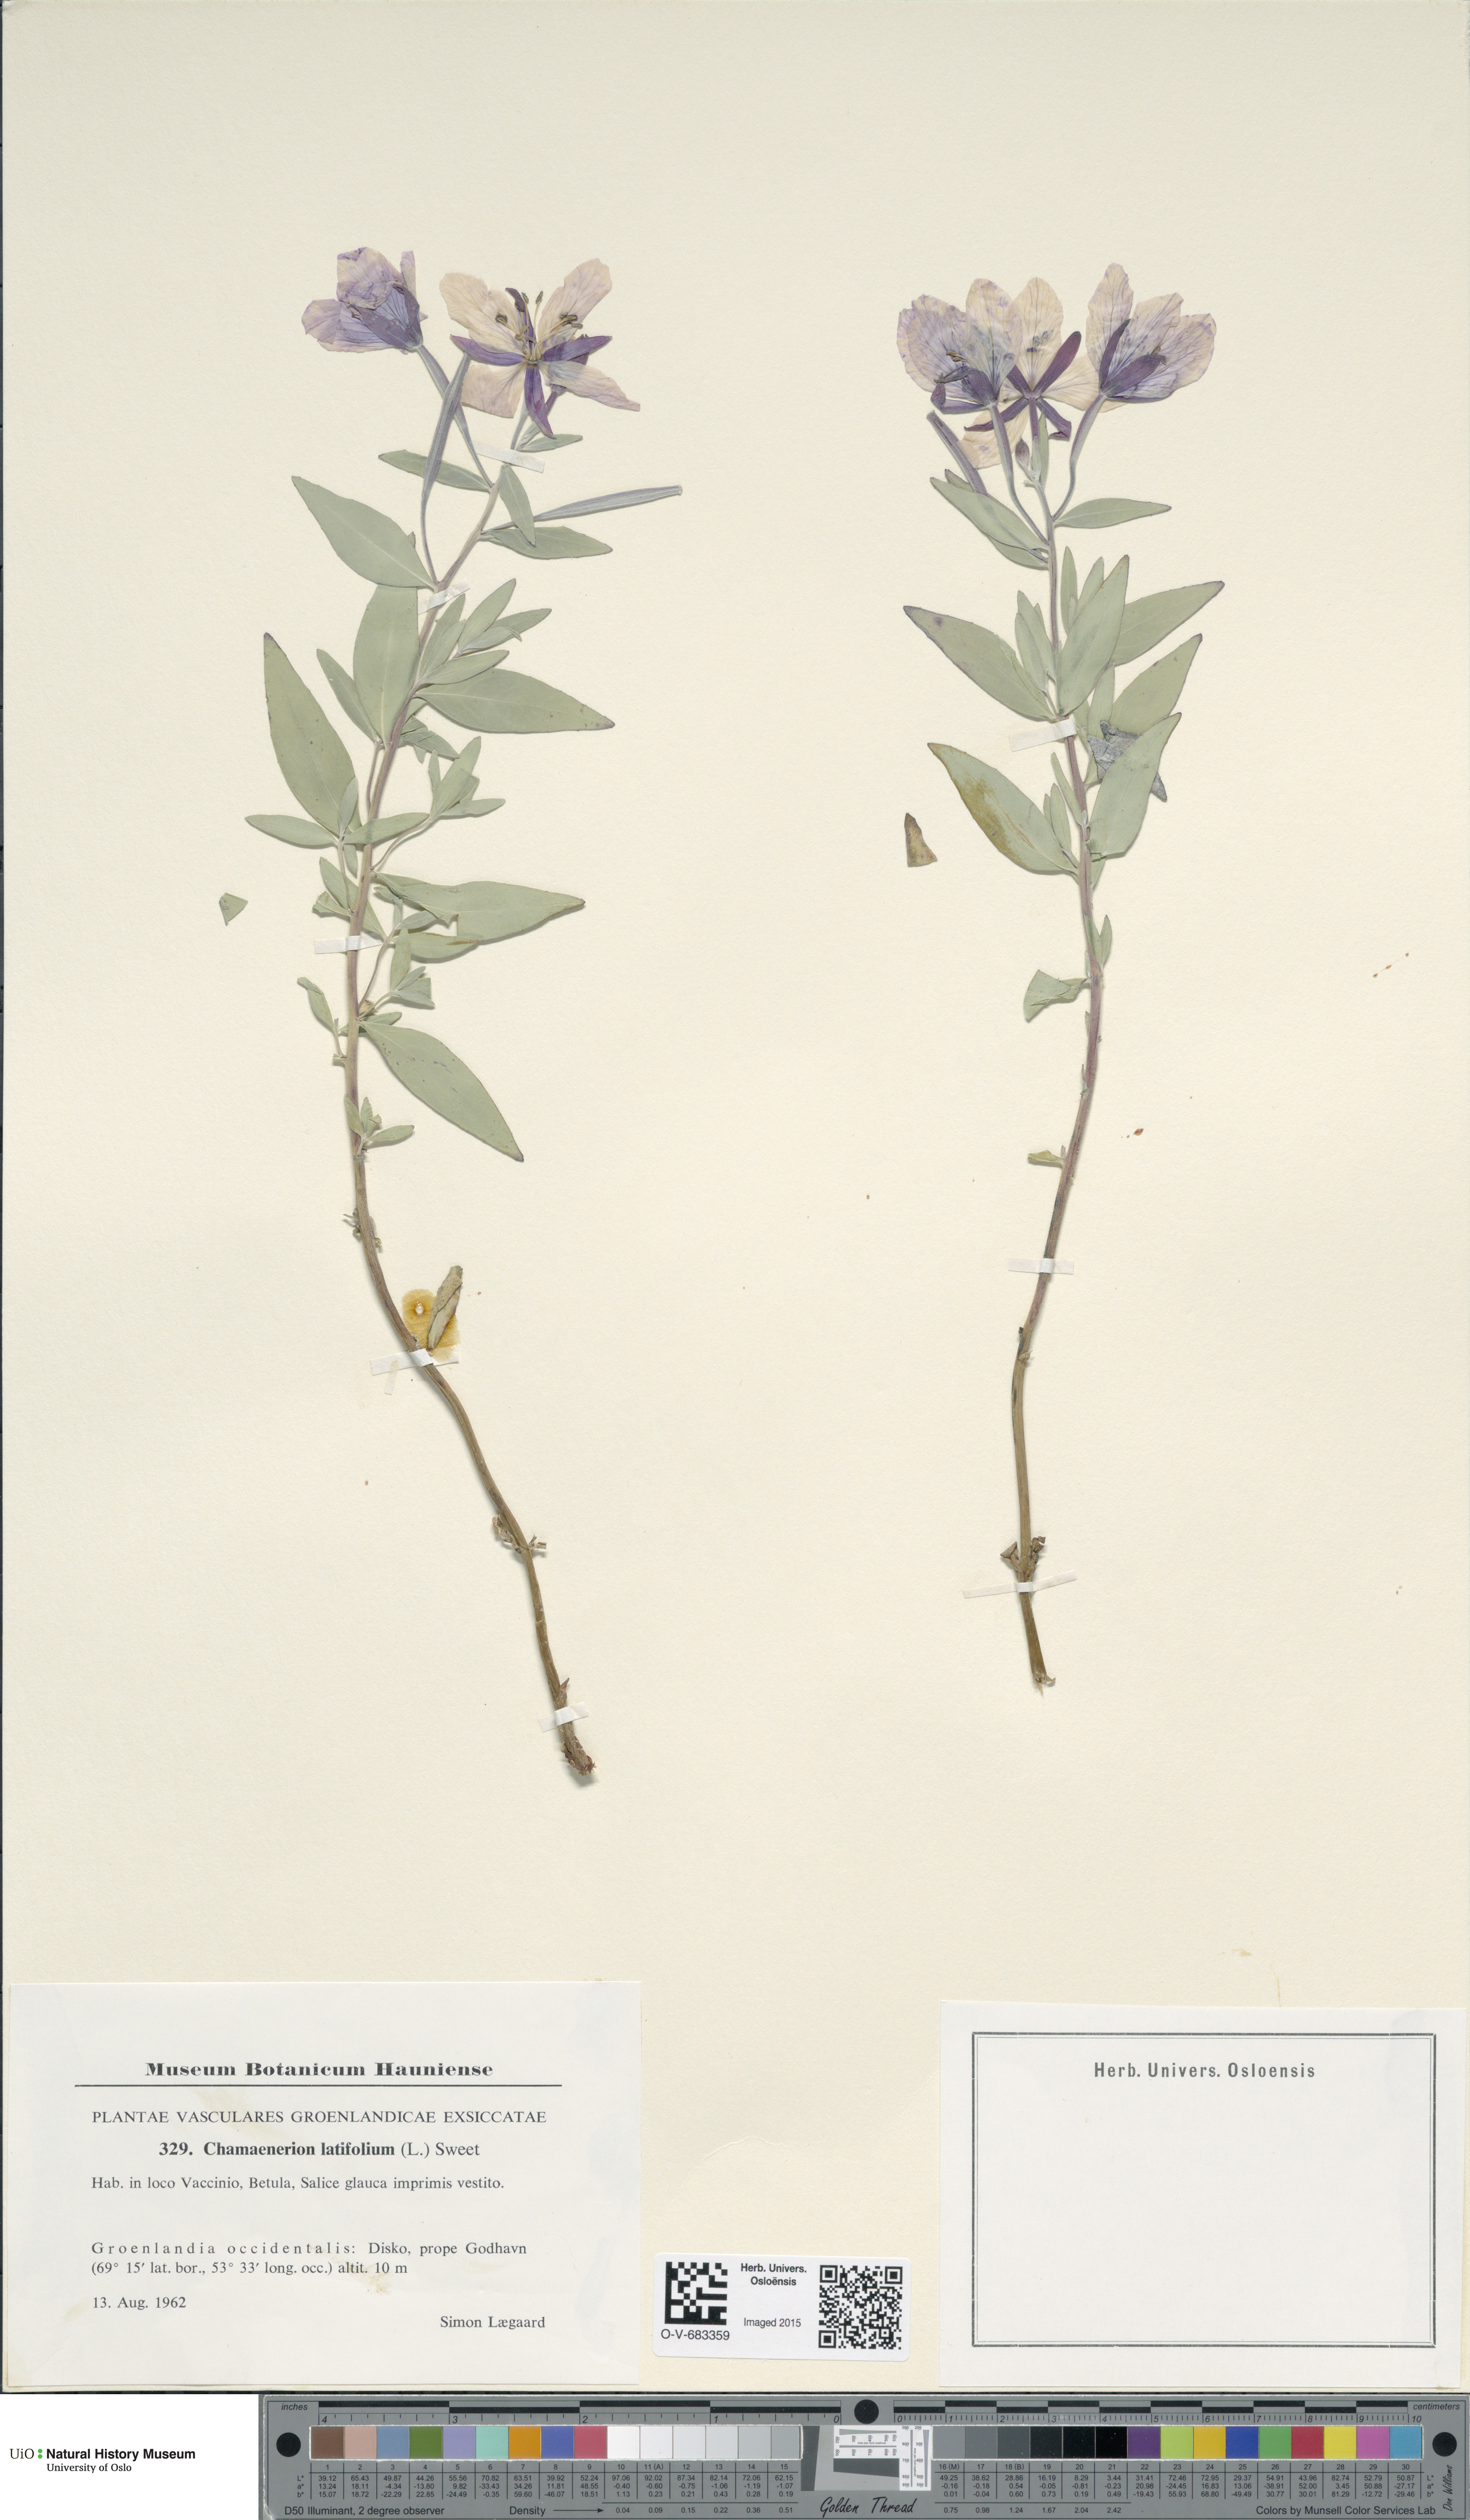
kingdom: Plantae
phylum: Tracheophyta
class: Magnoliopsida
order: Myrtales
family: Onagraceae
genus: Chamaenerion
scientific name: Chamaenerion latifolium
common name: Dwarf fireweed
